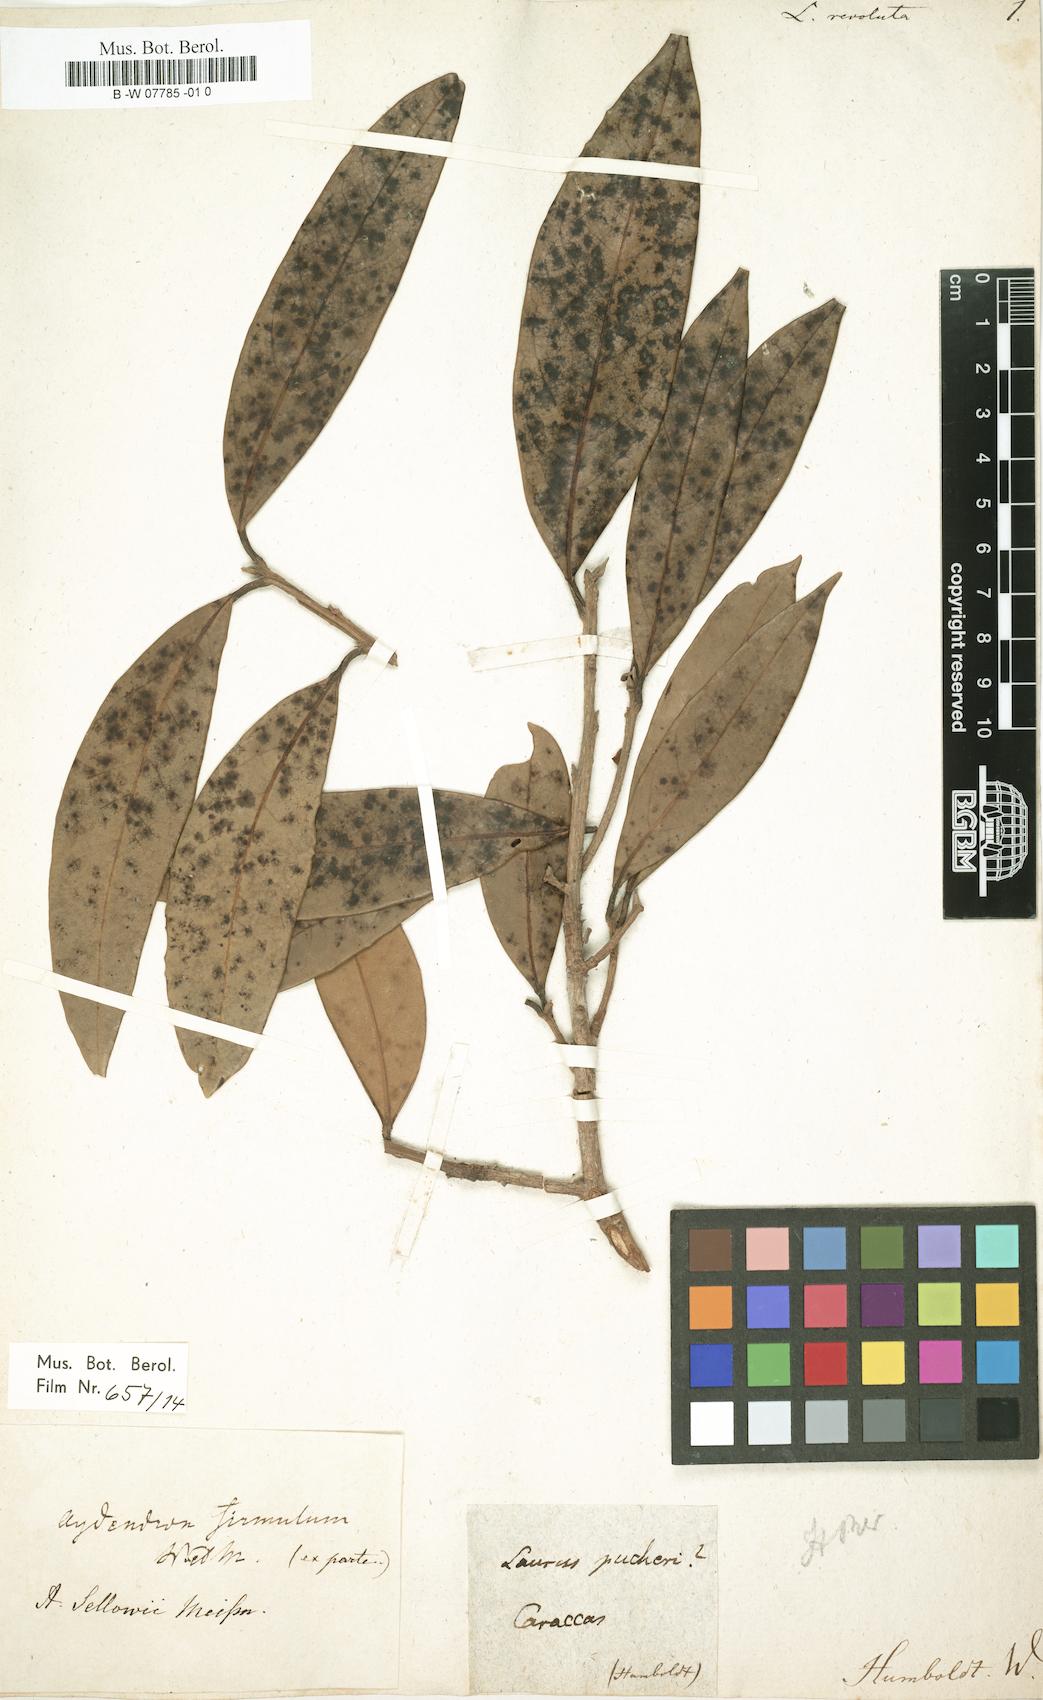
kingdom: Plantae
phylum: Tracheophyta
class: Magnoliopsida
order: Laurales
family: Lauraceae
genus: Aniba
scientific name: Aniba firmula
